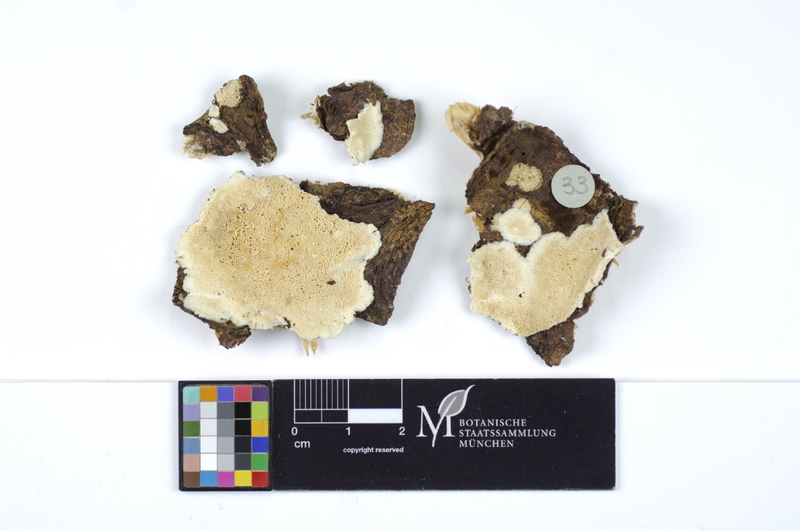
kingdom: Fungi
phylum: Basidiomycota
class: Agaricomycetes
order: Polyporales
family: Gelatoporiaceae
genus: Cinereomyces
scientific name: Cinereomyces lindbladii
